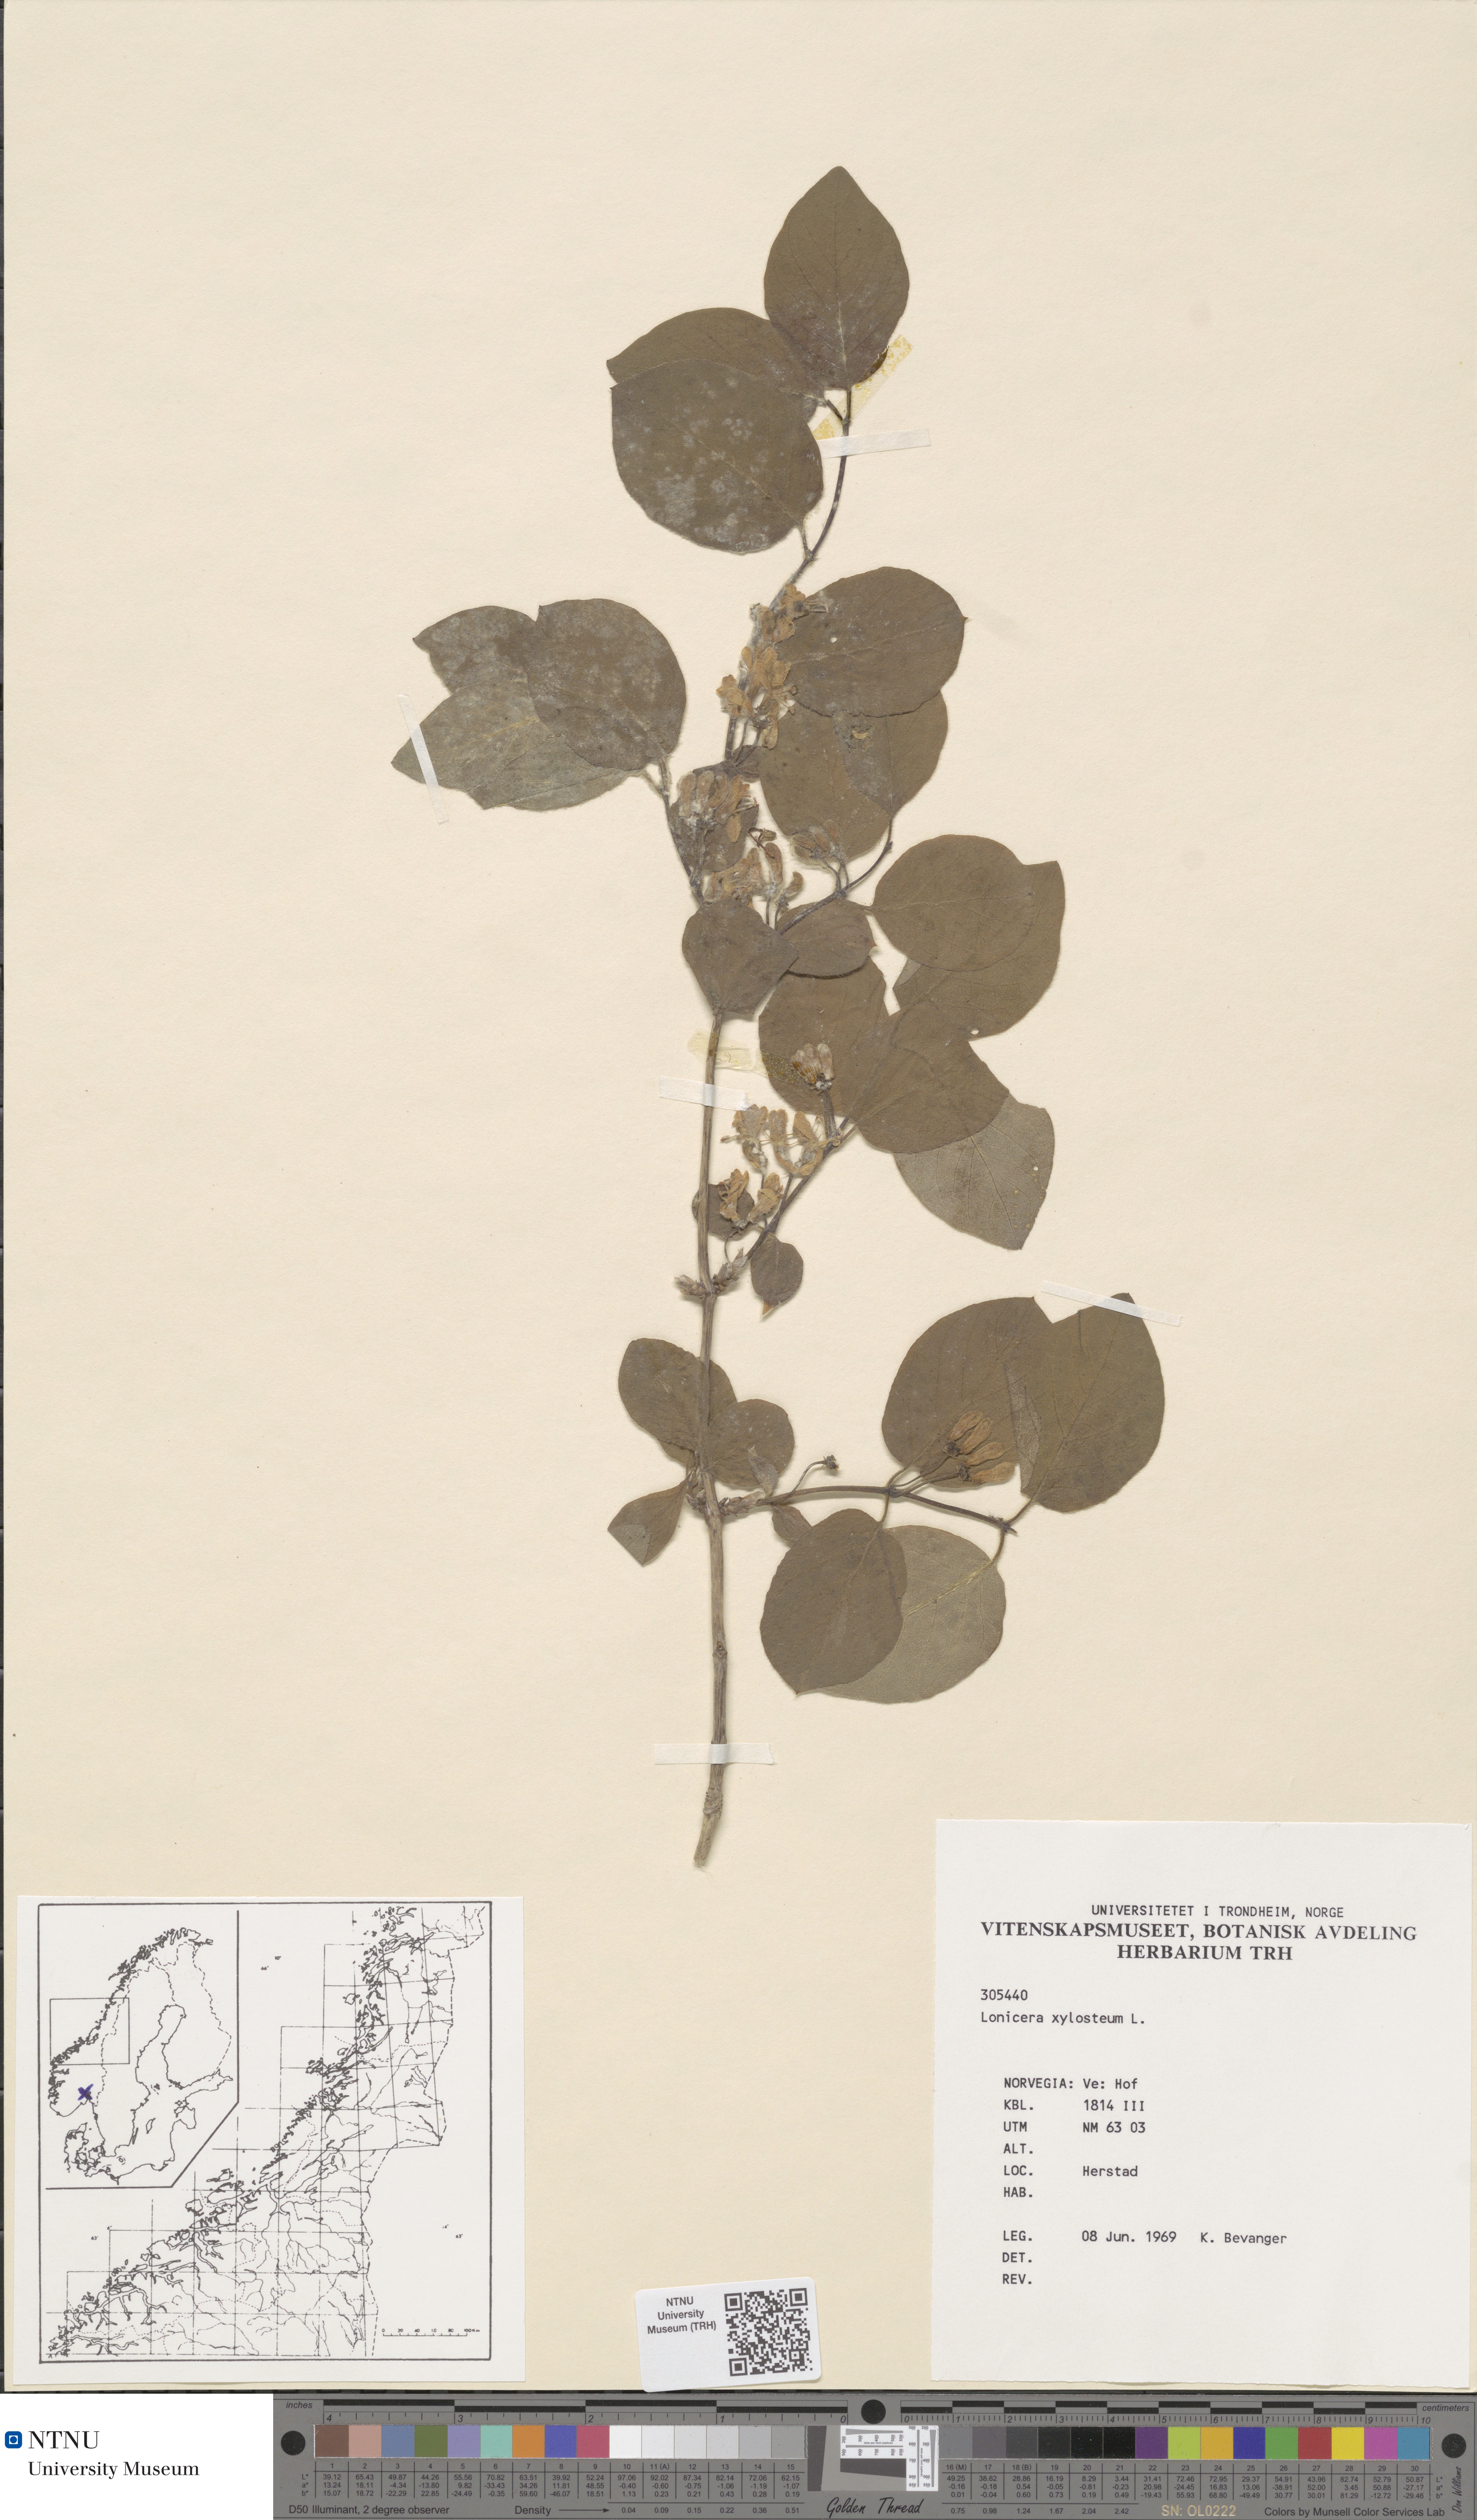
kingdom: Plantae
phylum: Tracheophyta
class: Magnoliopsida
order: Dipsacales
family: Caprifoliaceae
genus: Lonicera
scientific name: Lonicera xylosteum
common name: Fly honeysuckle
